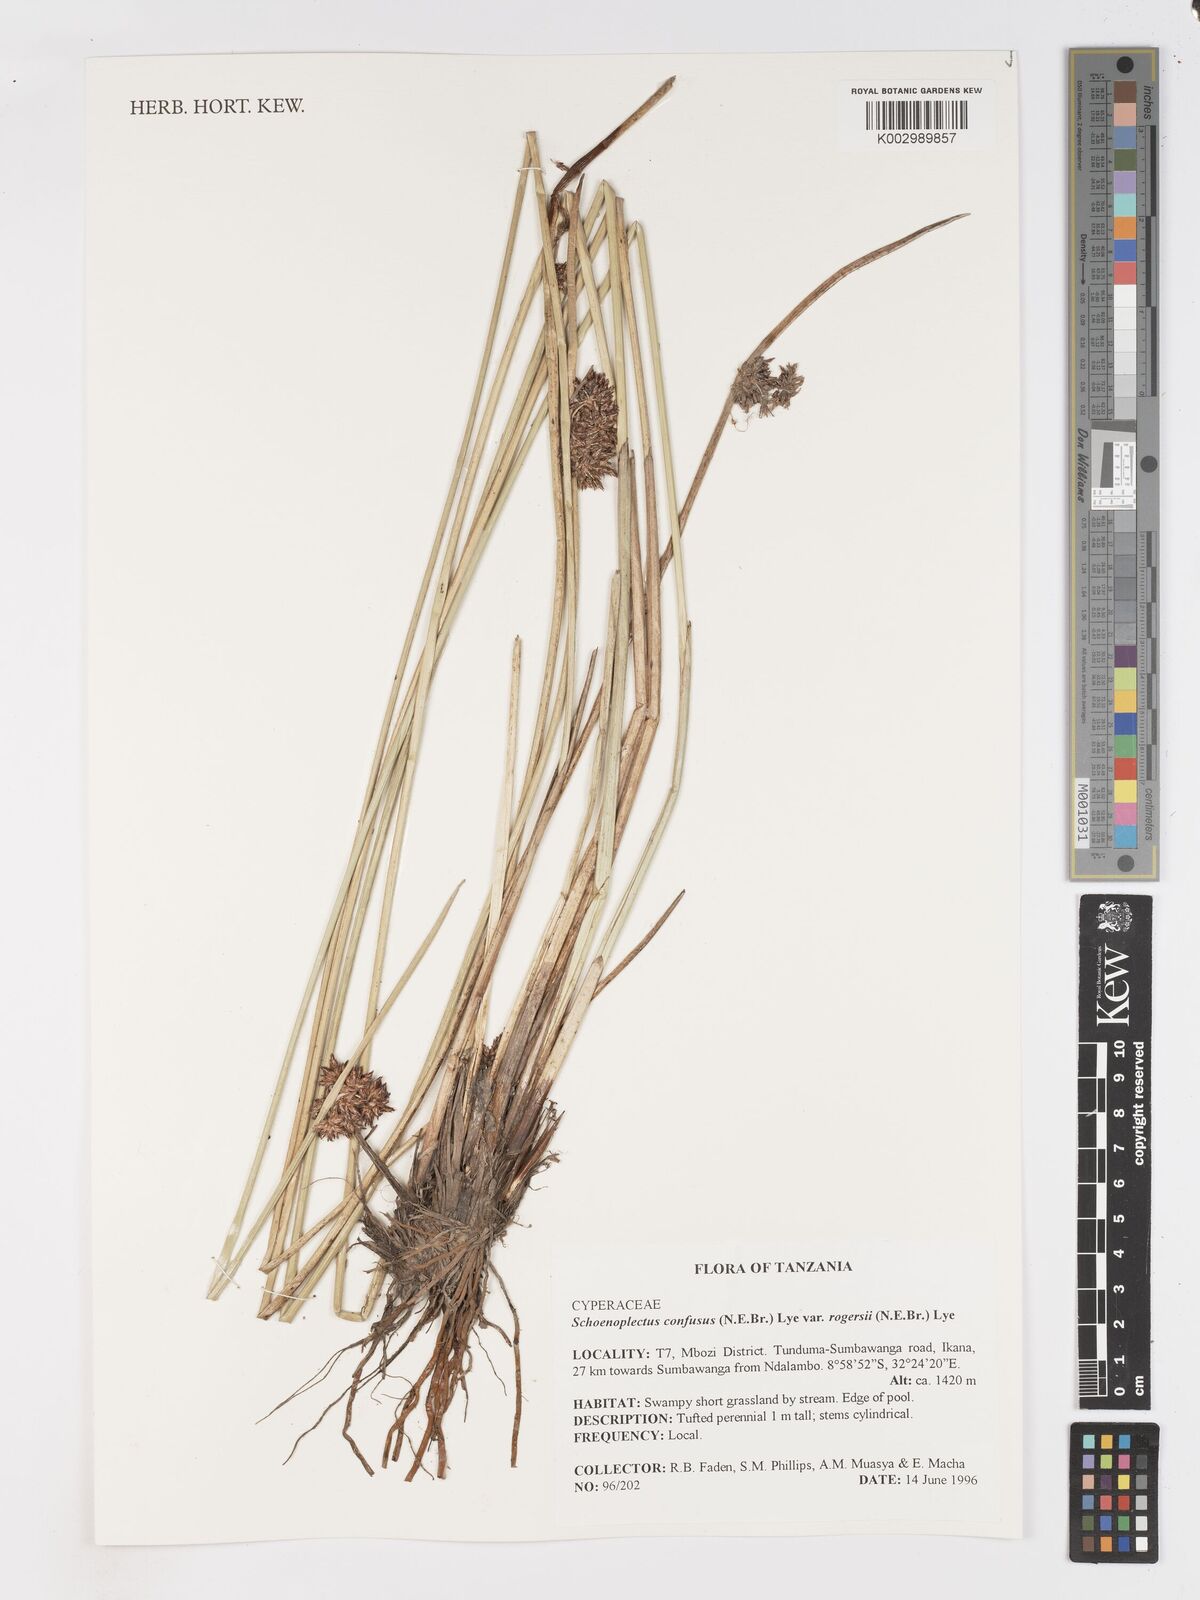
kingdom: Plantae
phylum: Tracheophyta
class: Liliopsida
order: Poales
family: Cyperaceae
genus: Schoenoplectiella
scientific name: Schoenoplectiella rogersii
